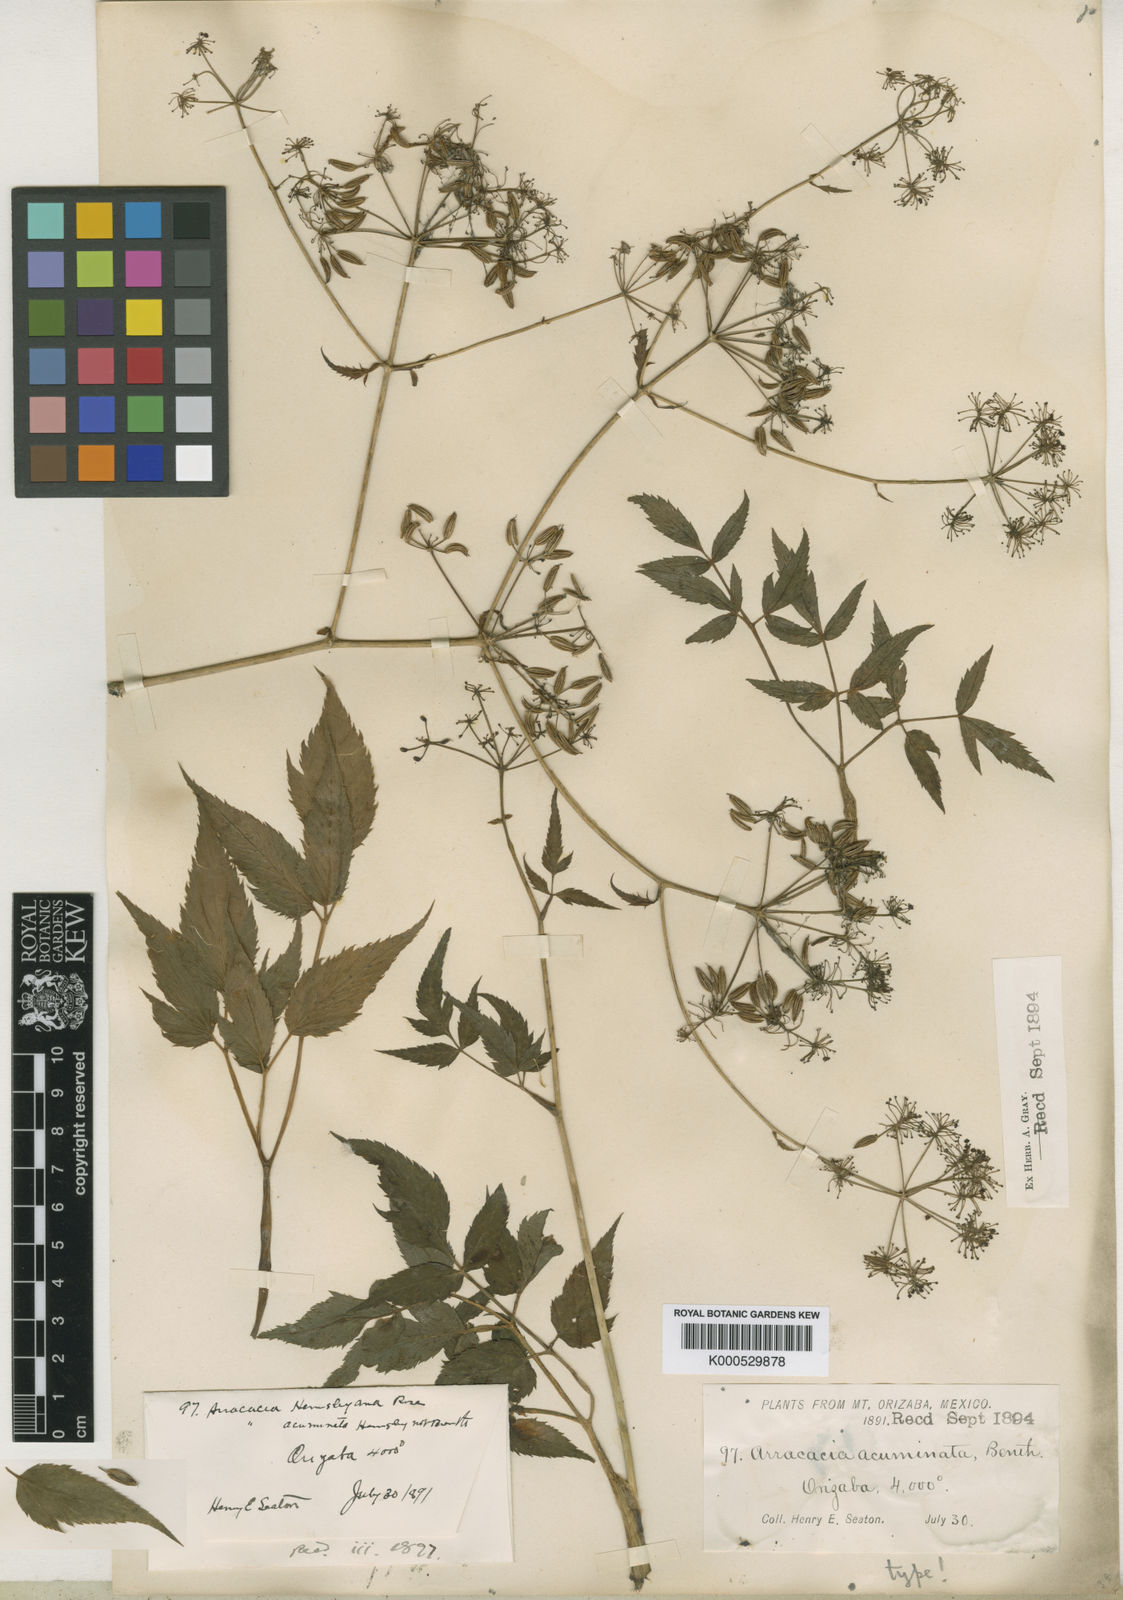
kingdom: Plantae
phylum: Tracheophyta
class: Magnoliopsida
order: Apiales
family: Apiaceae
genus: Arracacia
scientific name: Arracacia hemsleyana
